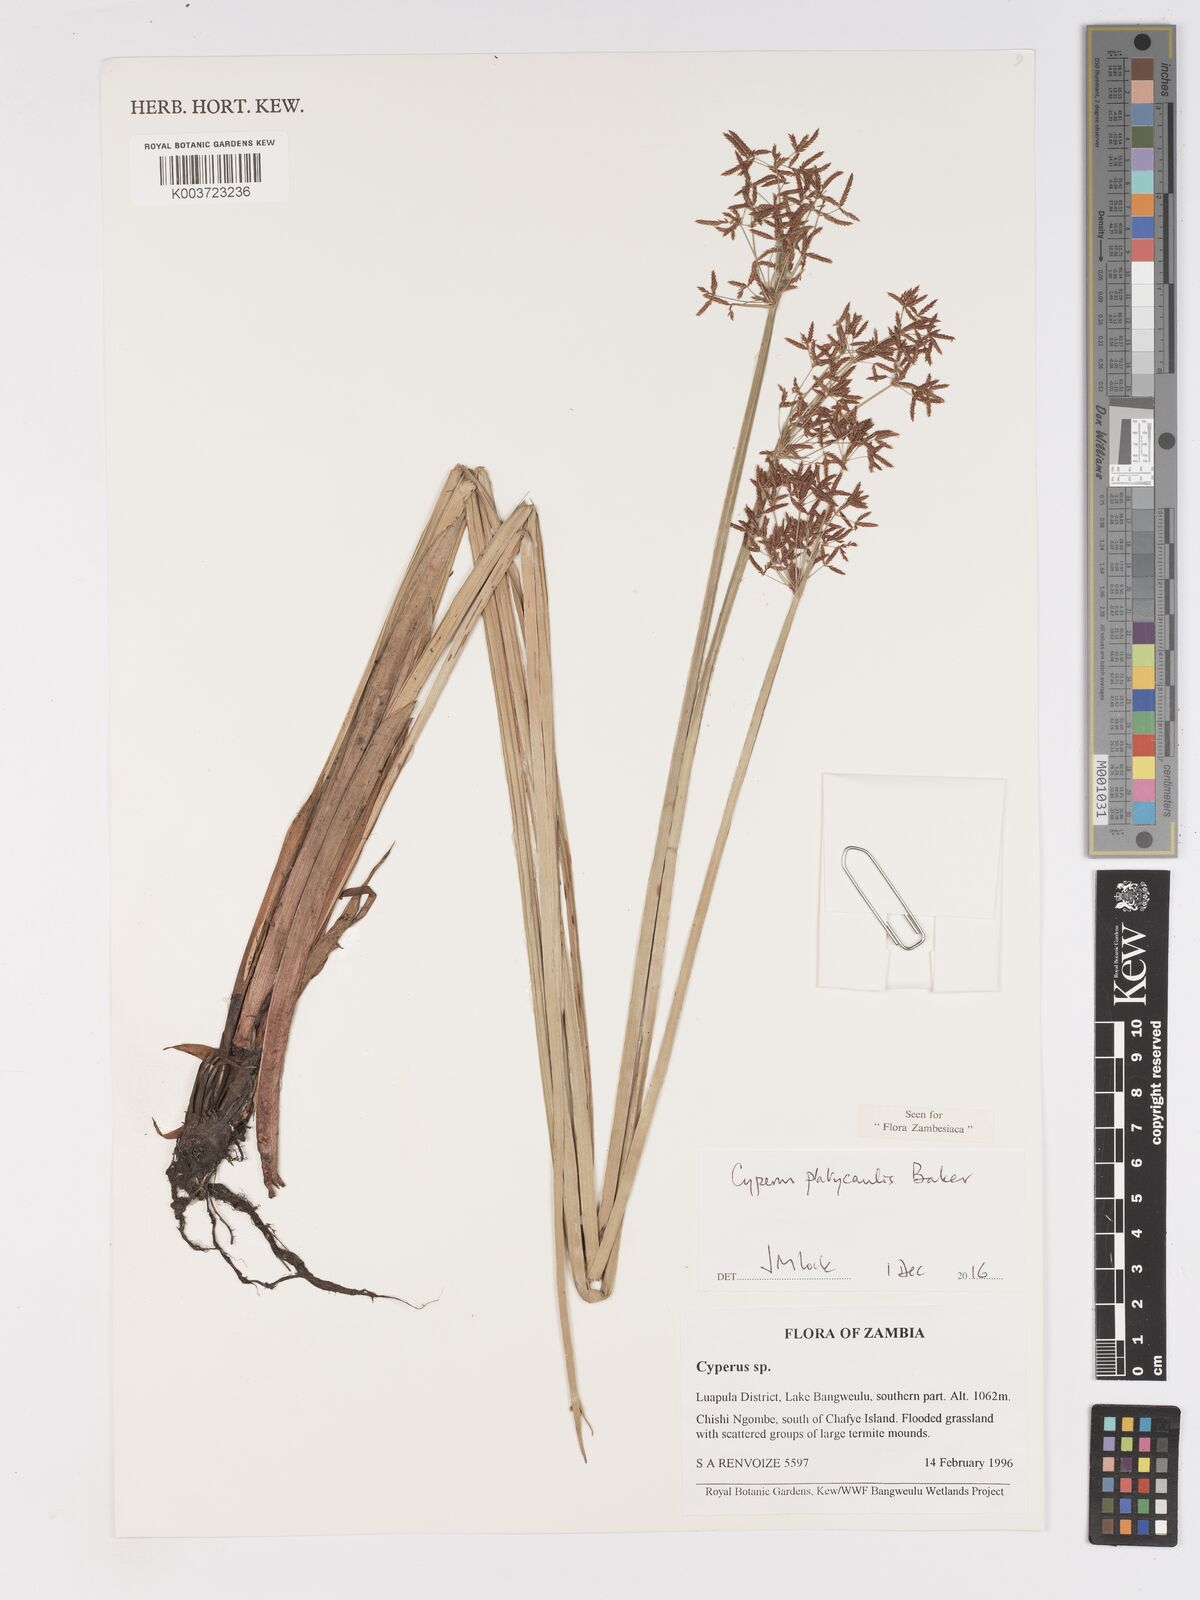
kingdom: Plantae
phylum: Tracheophyta
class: Liliopsida
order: Poales
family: Cyperaceae
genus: Cyperus
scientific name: Cyperus platycaulis
